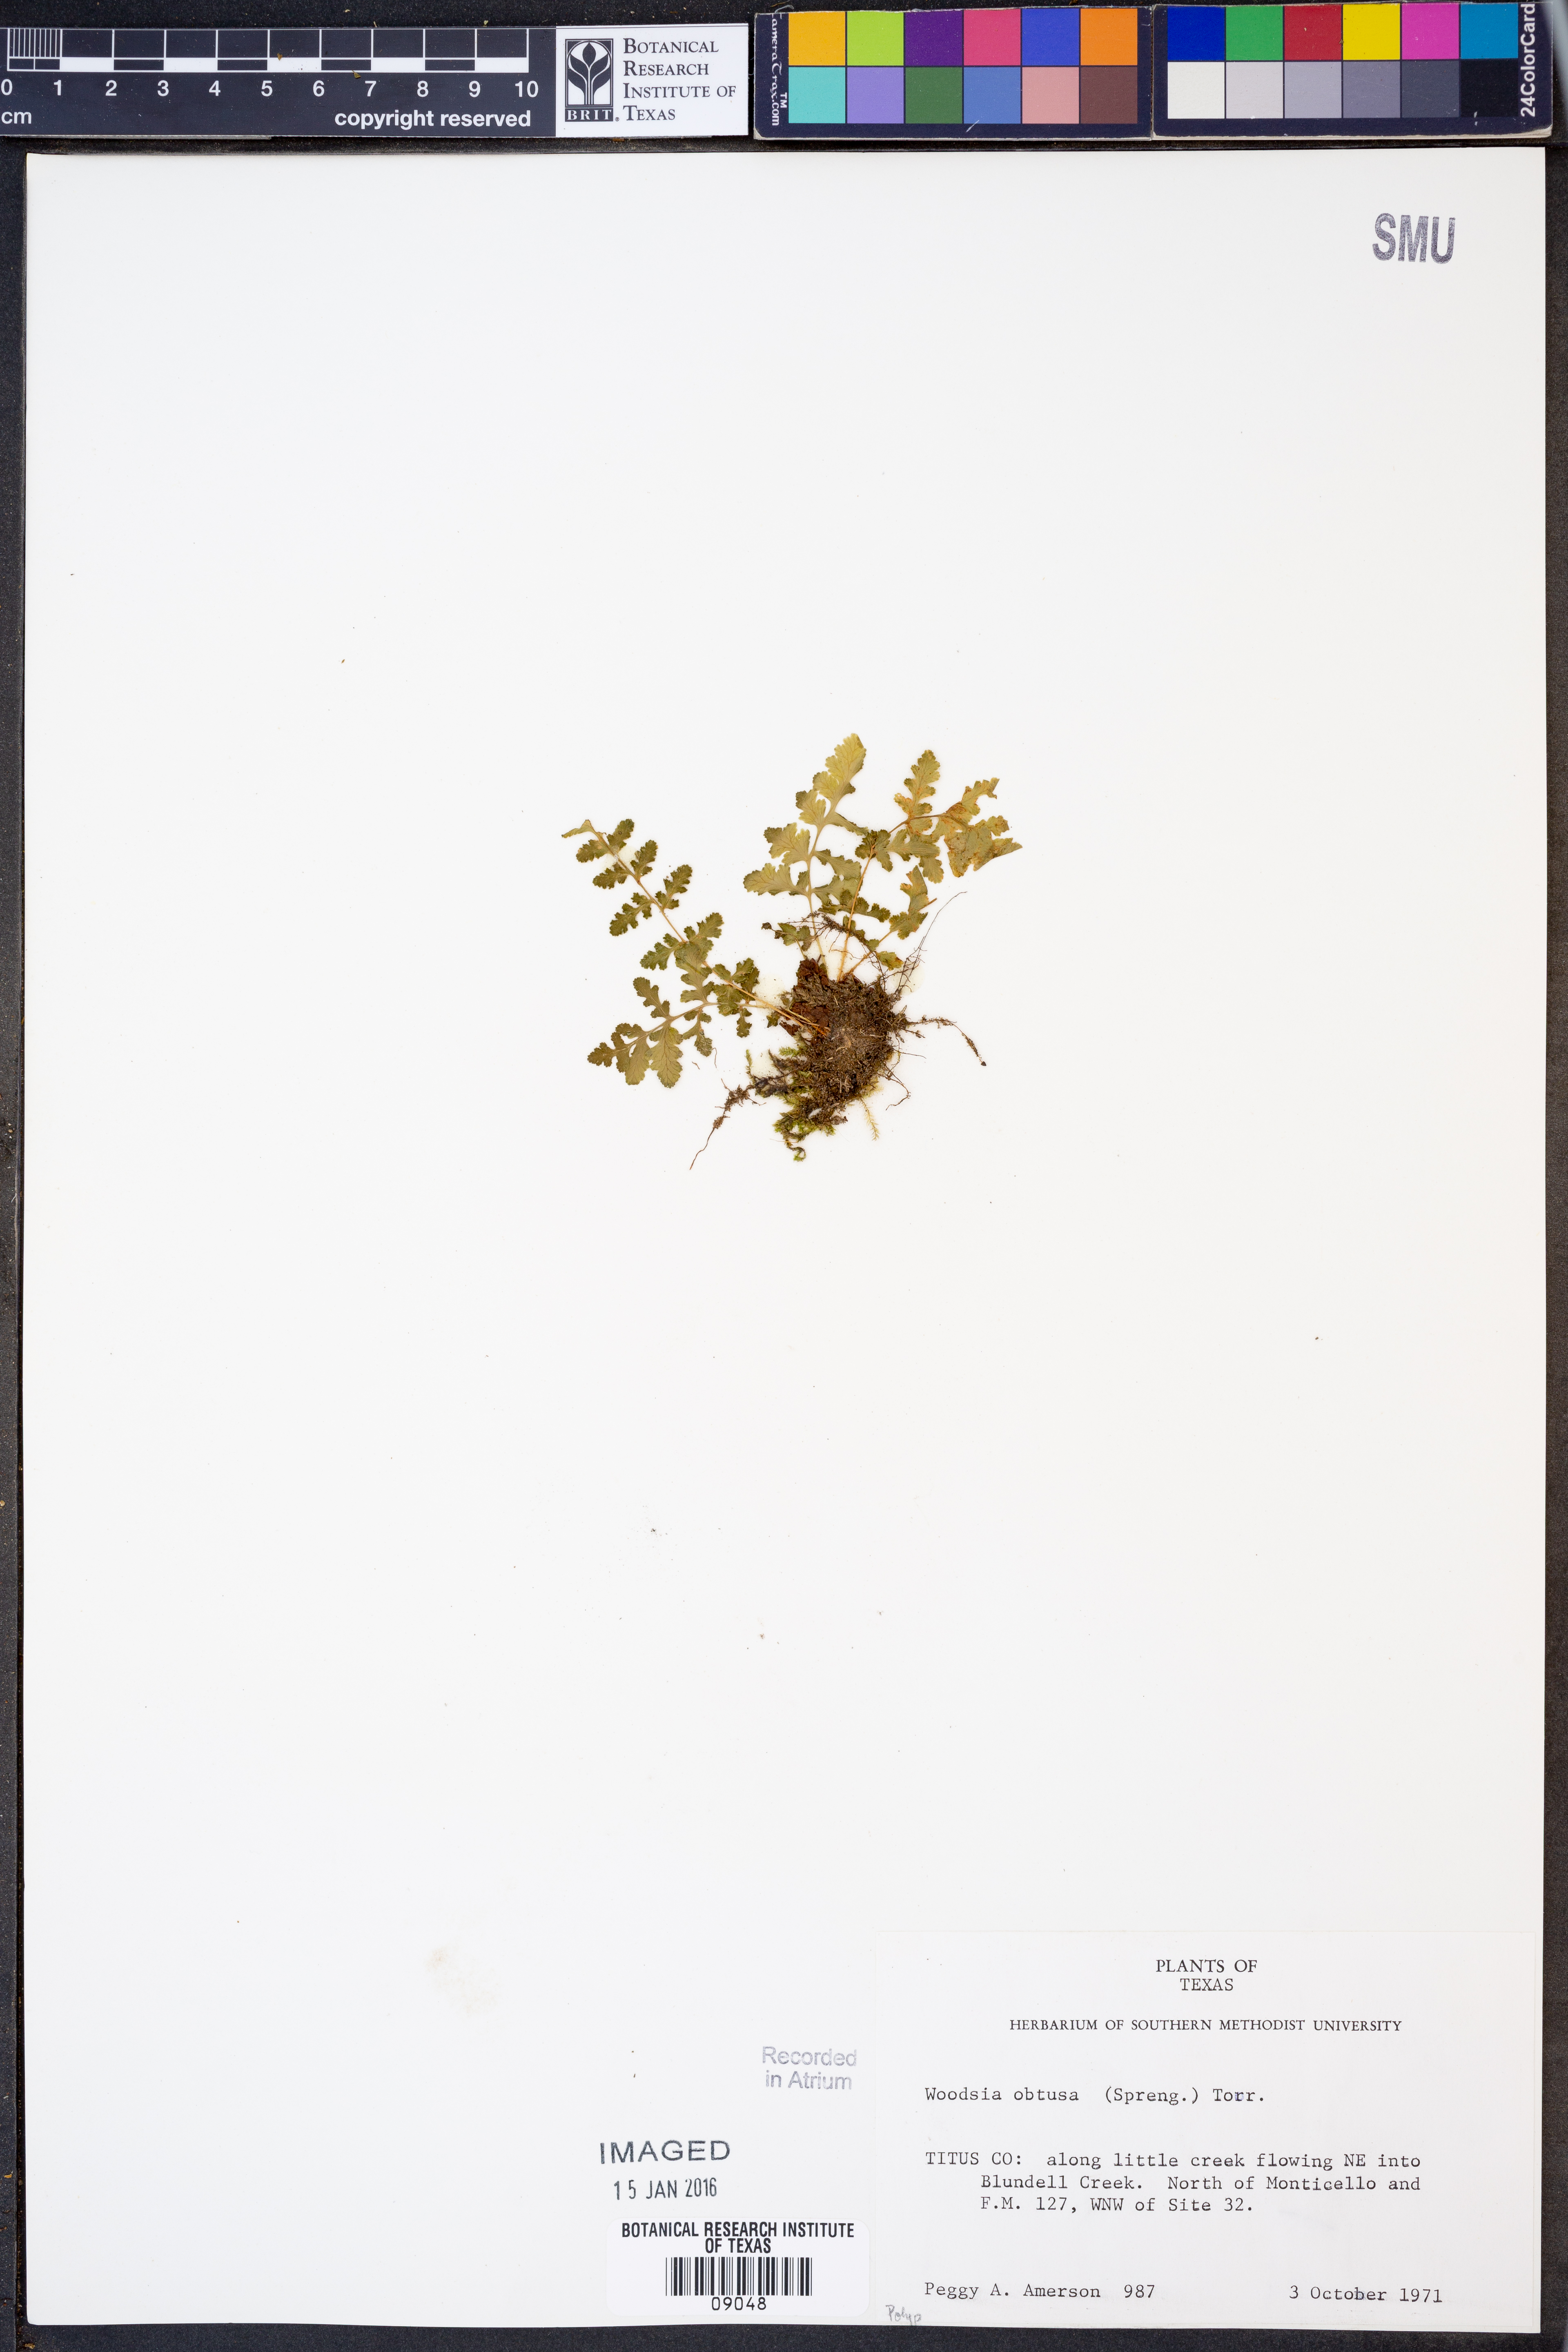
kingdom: Plantae
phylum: Tracheophyta
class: Polypodiopsida
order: Polypodiales
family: Woodsiaceae
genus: Physematium
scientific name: Physematium obtusum
